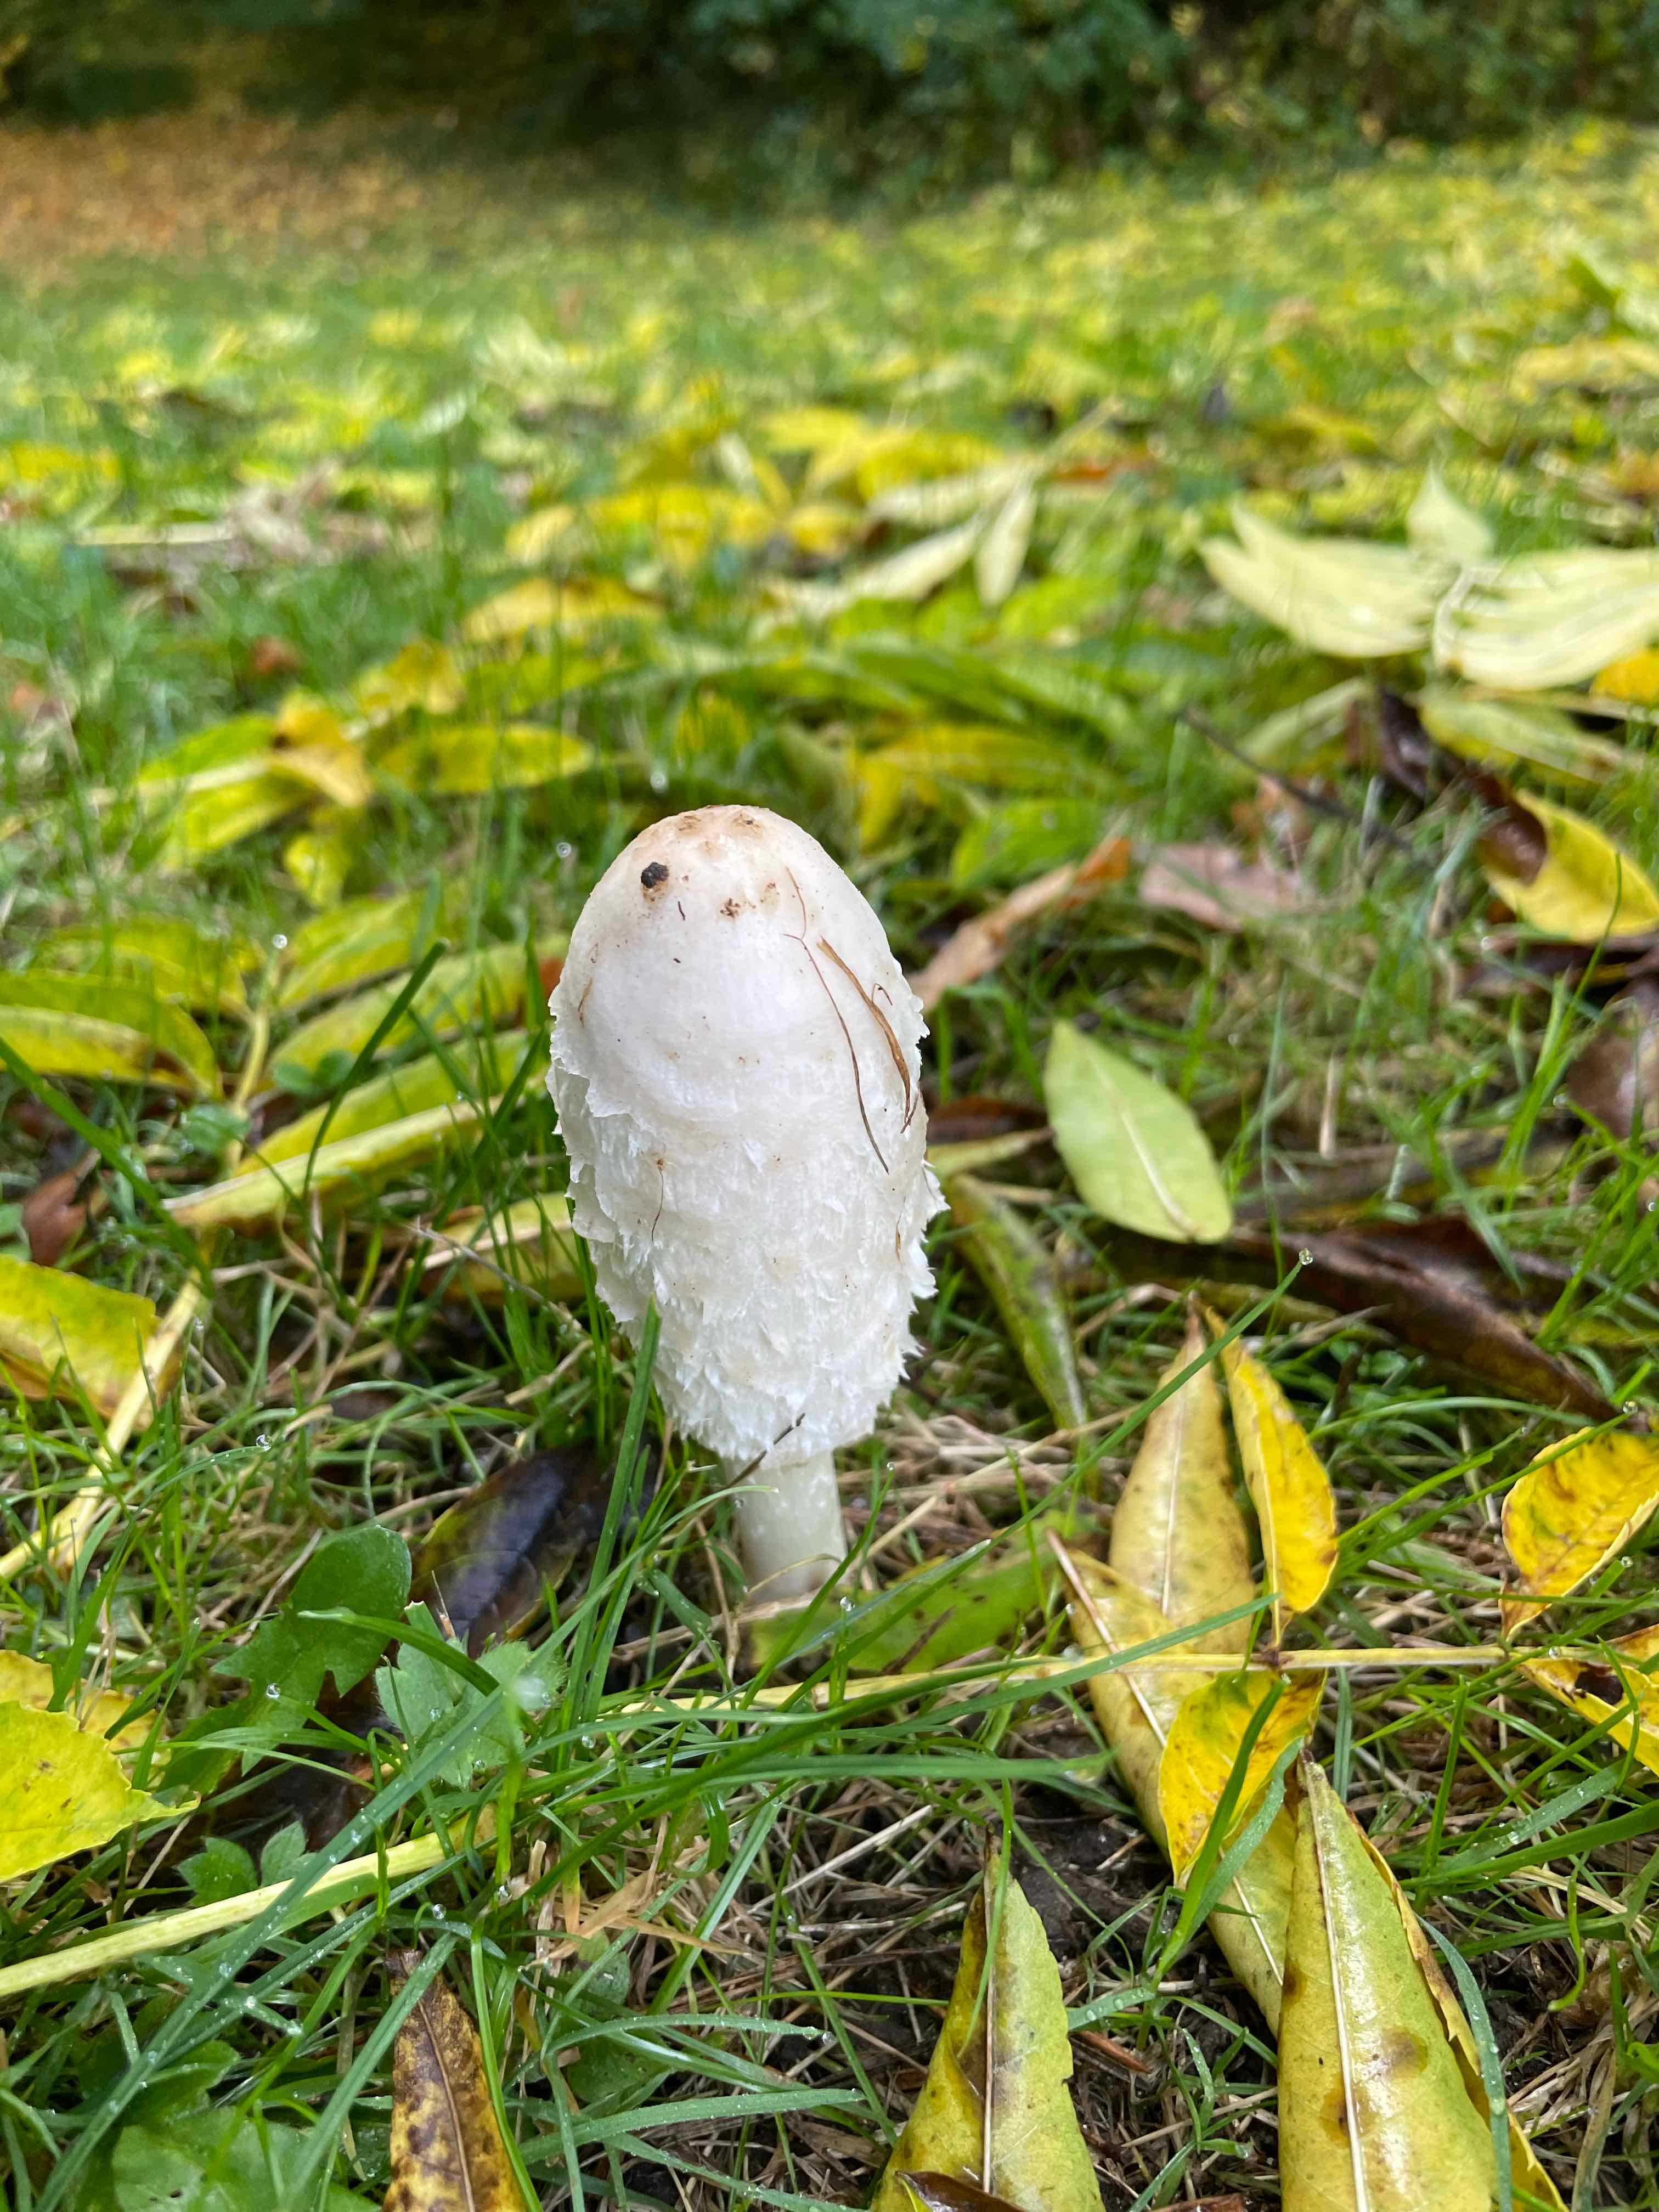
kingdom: Fungi
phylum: Basidiomycota
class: Agaricomycetes
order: Agaricales
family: Agaricaceae
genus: Coprinus
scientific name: Coprinus comatus
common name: stor parykhat
